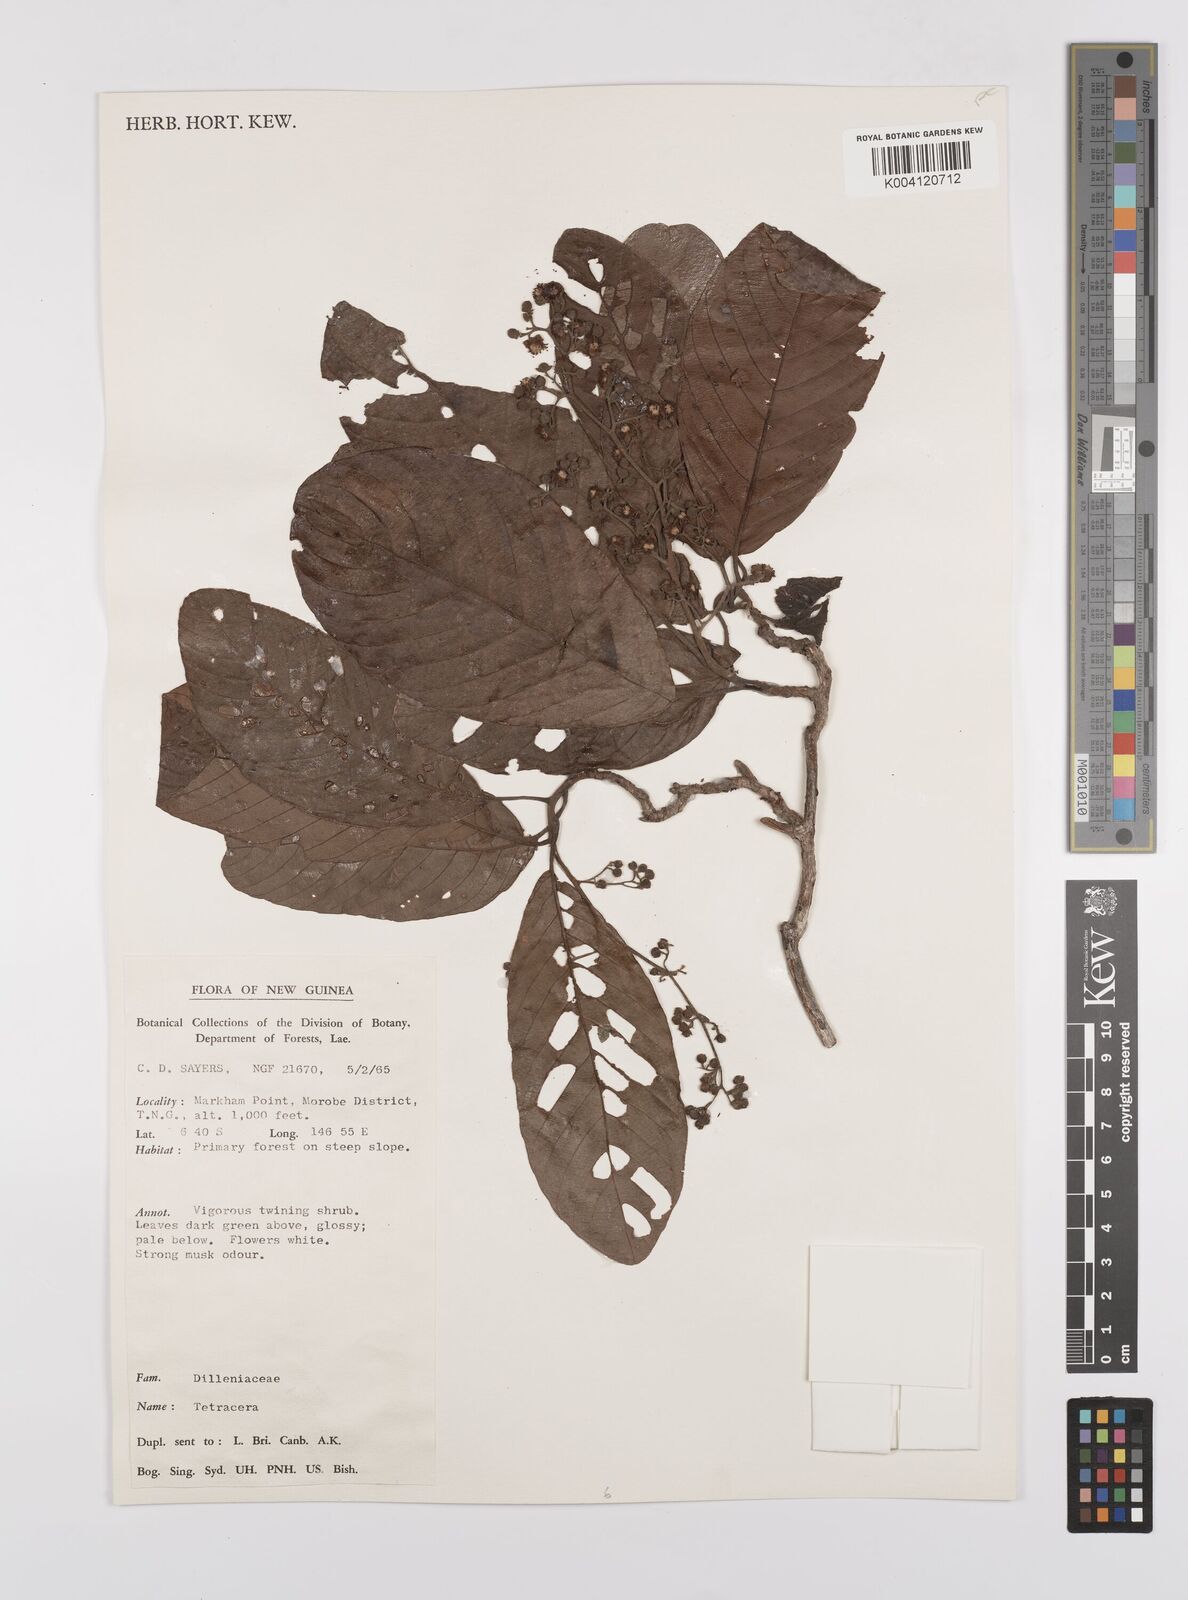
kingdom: Plantae
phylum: Tracheophyta
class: Magnoliopsida
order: Dilleniales
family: Dilleniaceae
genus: Tetracera
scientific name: Tetracera
